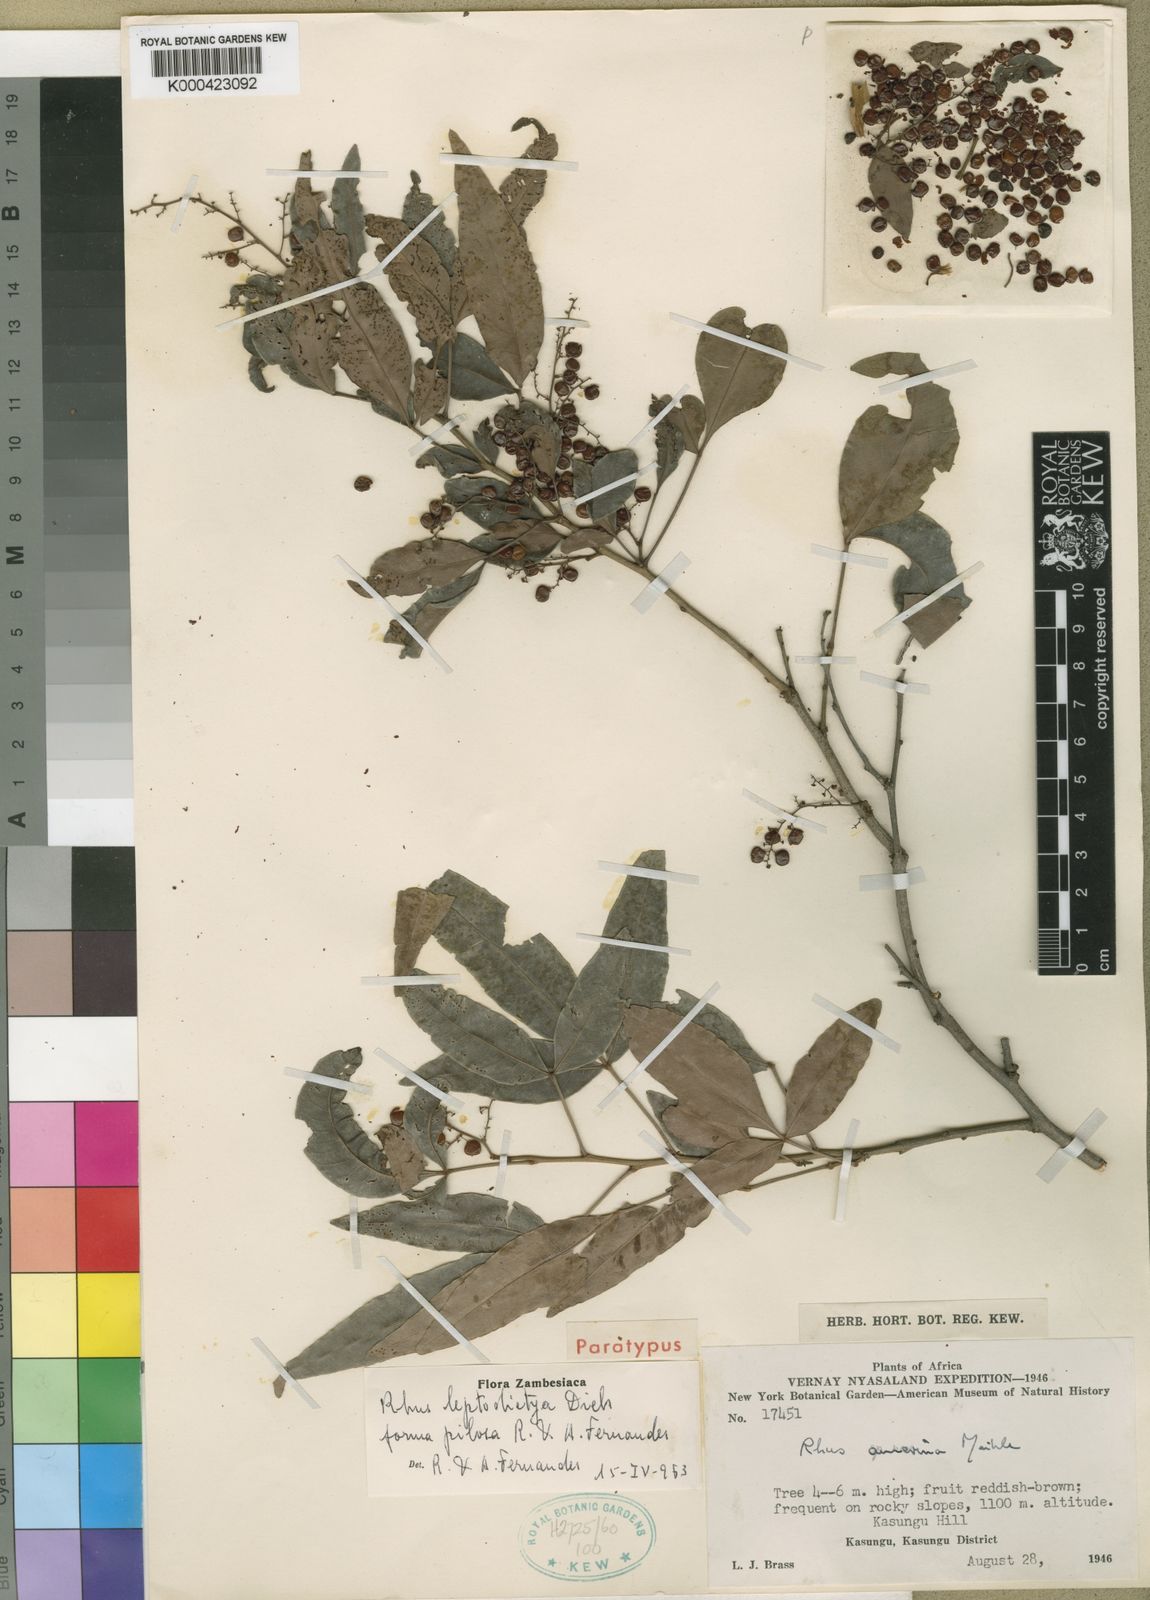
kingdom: Plantae
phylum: Tracheophyta
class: Magnoliopsida
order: Sapindales
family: Anacardiaceae
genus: Searsia
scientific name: Searsia leptodictya
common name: Mountain karee
